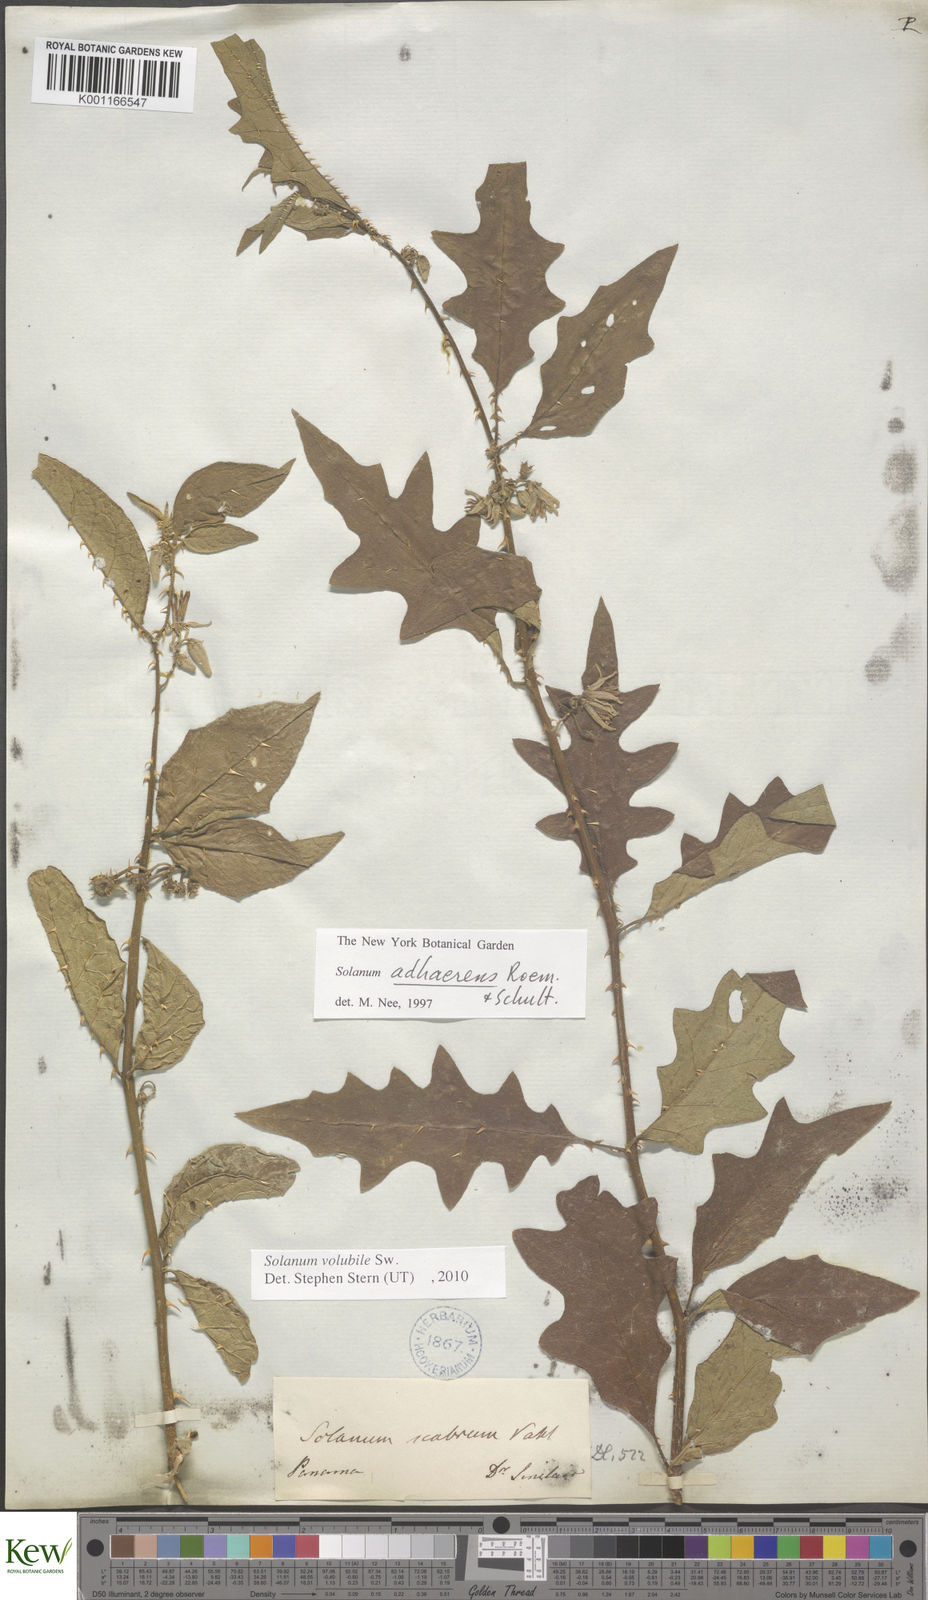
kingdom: Plantae
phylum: Tracheophyta
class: Magnoliopsida
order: Solanales
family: Solanaceae
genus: Solanum
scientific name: Solanum volubile
